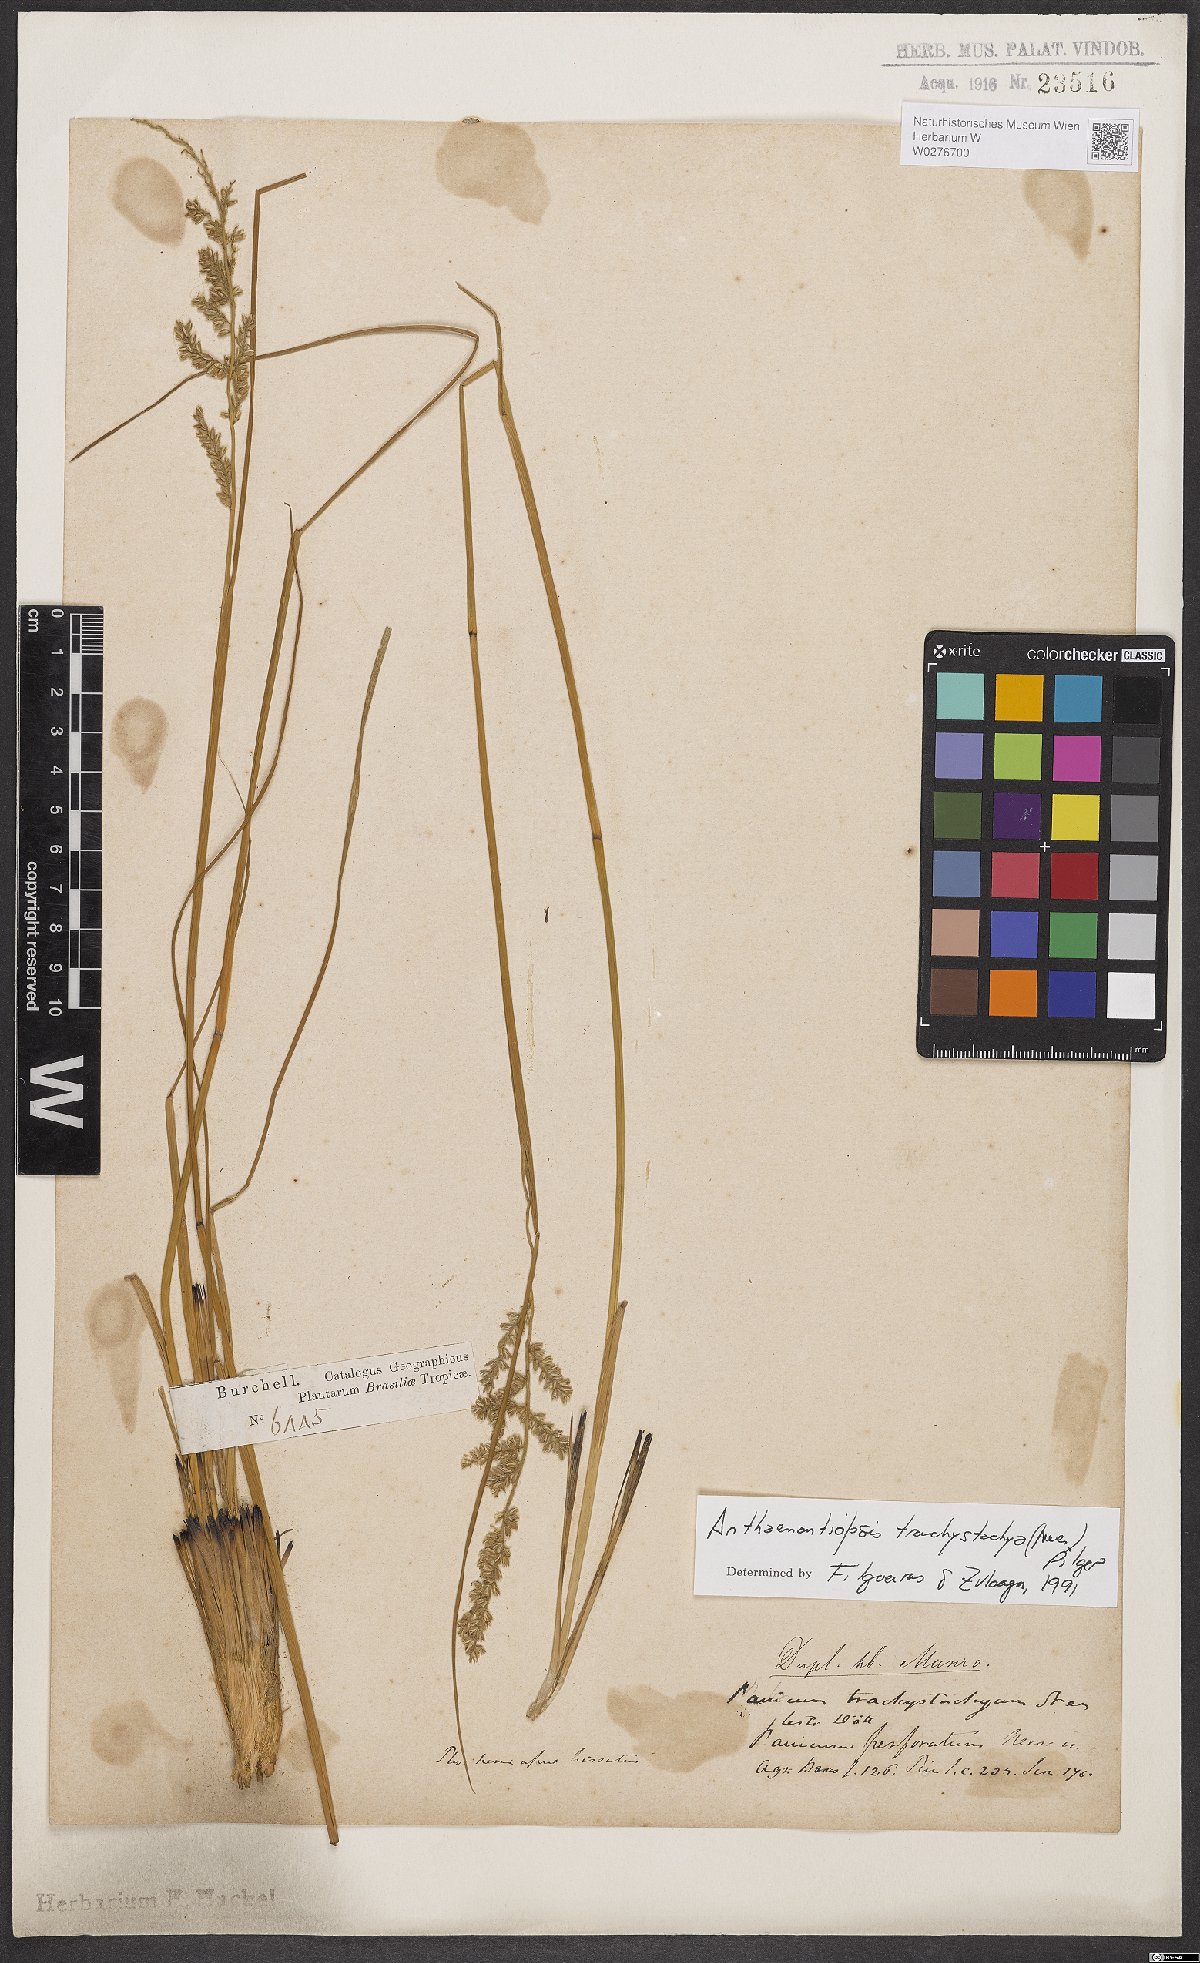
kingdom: Plantae
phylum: Tracheophyta
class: Liliopsida
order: Poales
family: Poaceae
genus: Anthaenantiopsis
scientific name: Anthaenantiopsis trachystachya
